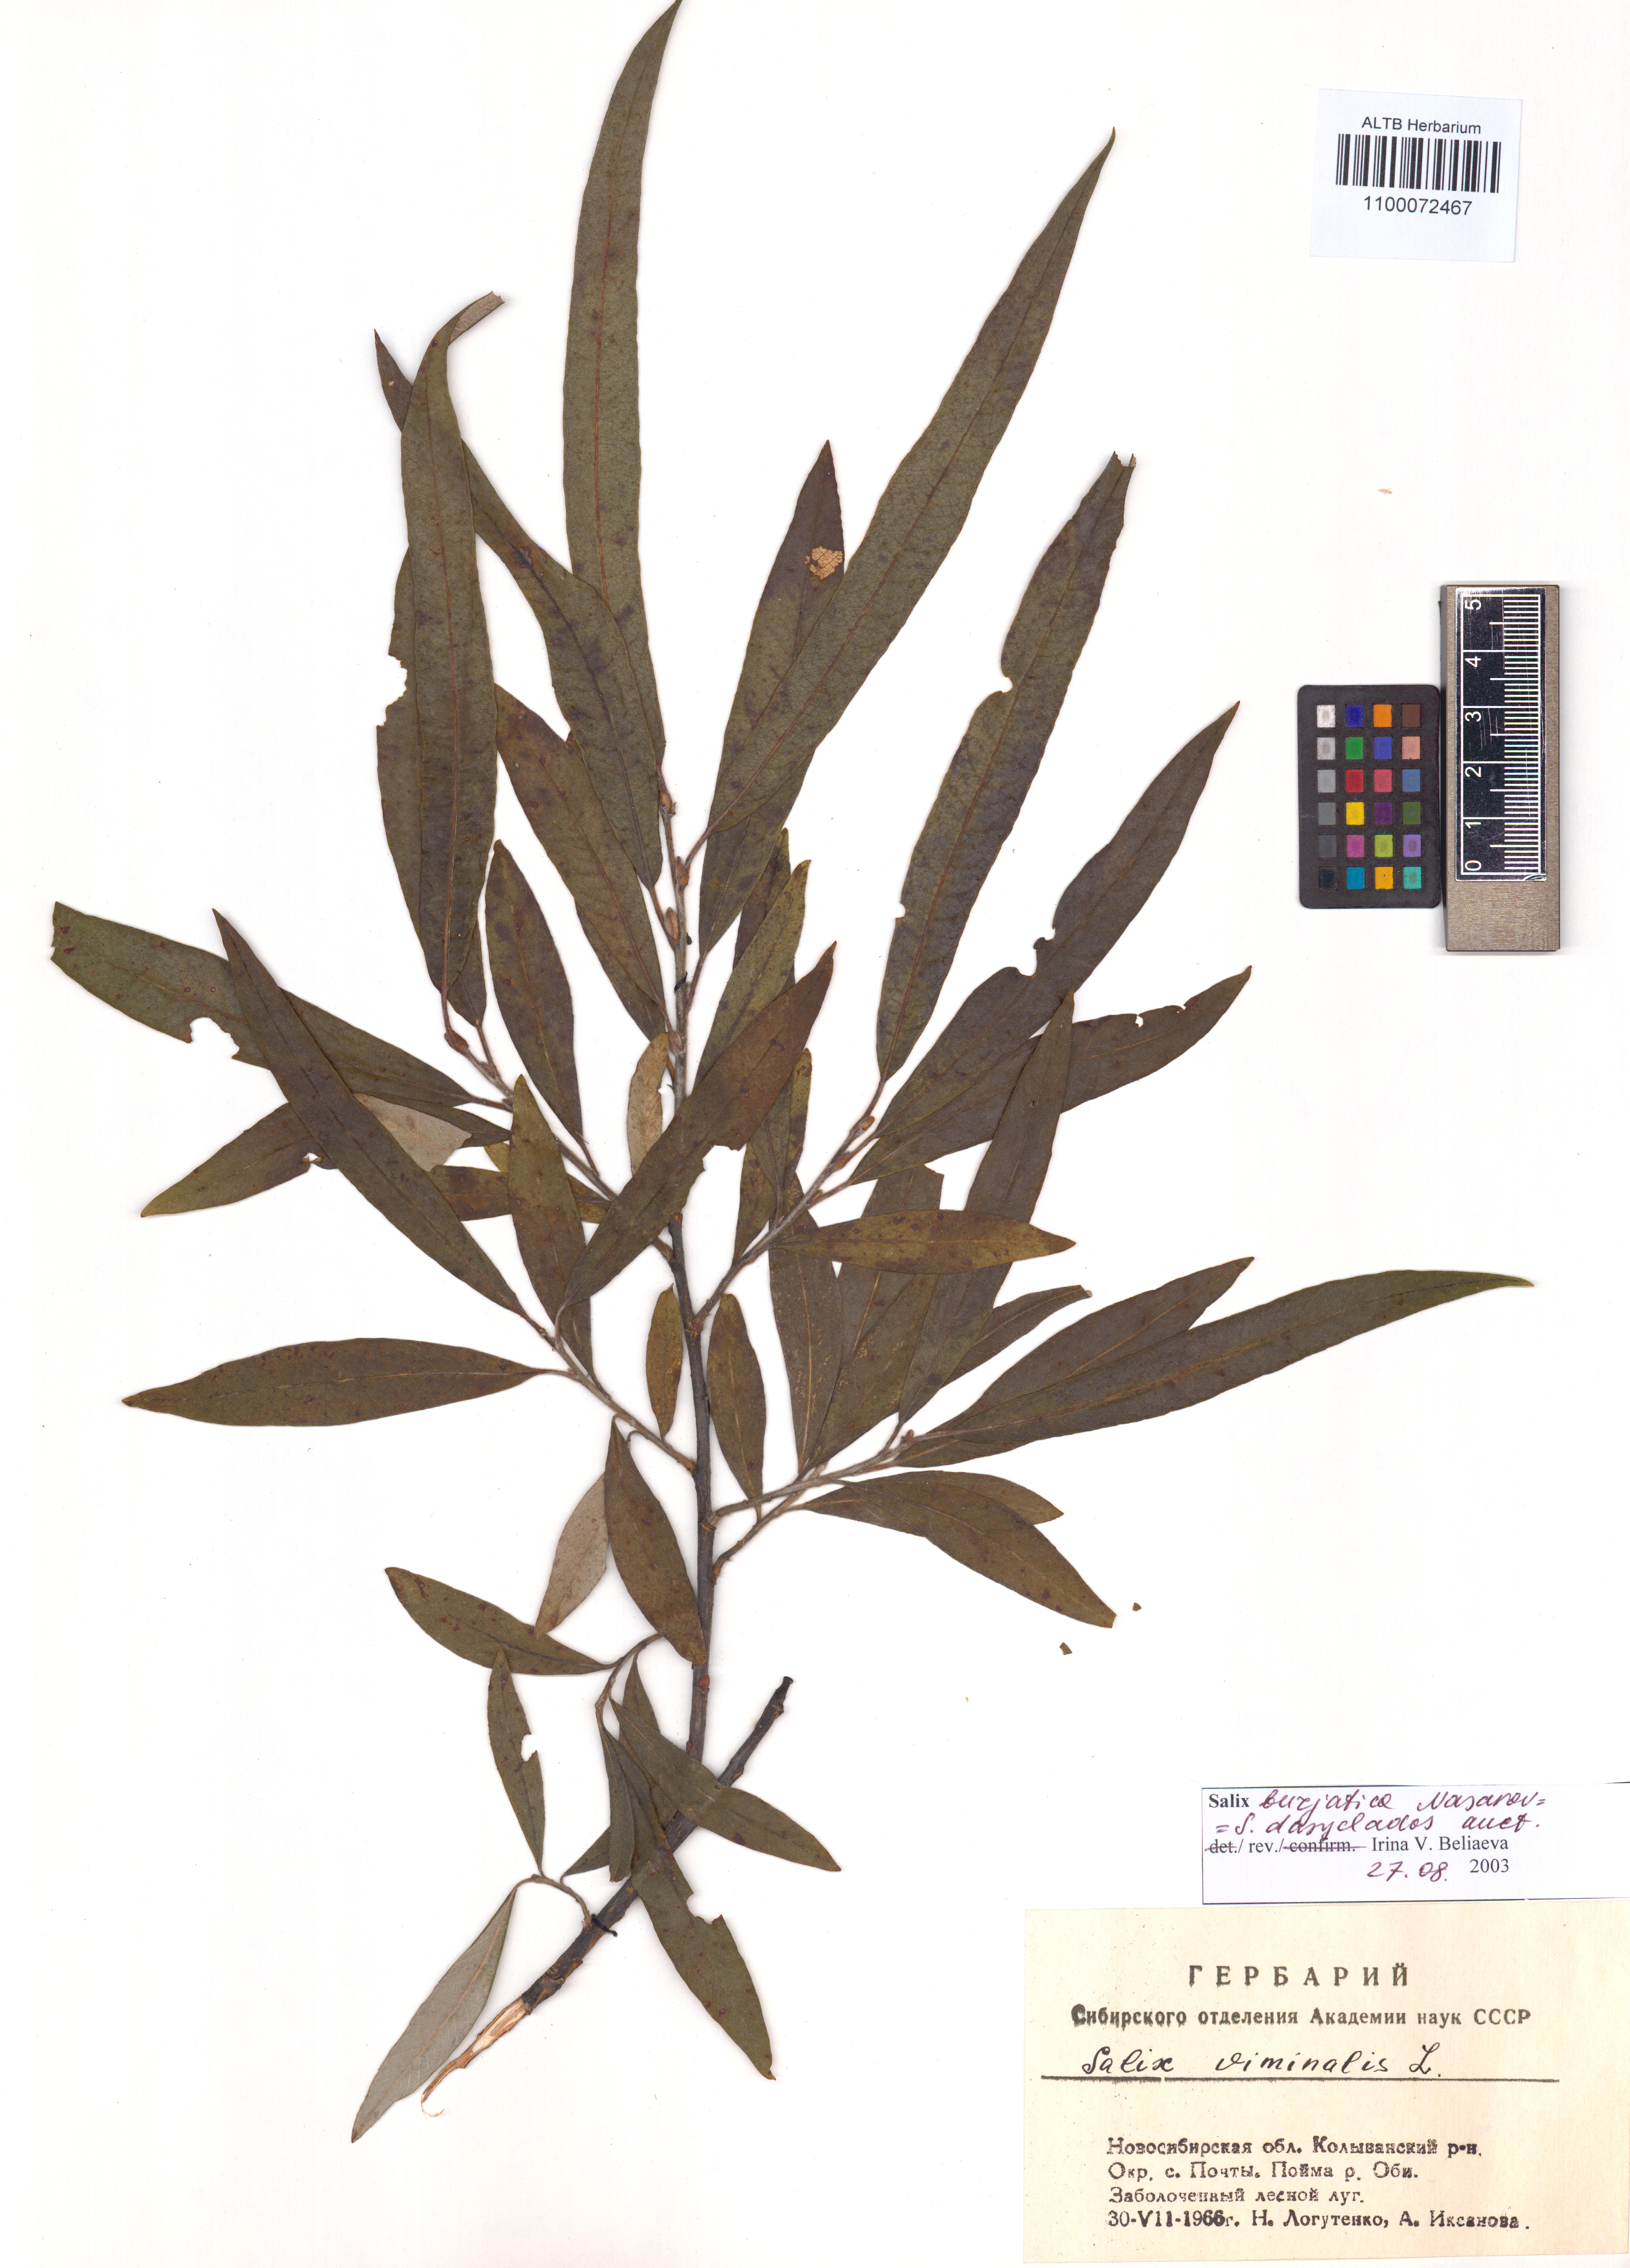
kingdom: Plantae
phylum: Tracheophyta
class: Magnoliopsida
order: Malpighiales
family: Salicaceae
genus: Salix
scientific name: Salix gmelinii
